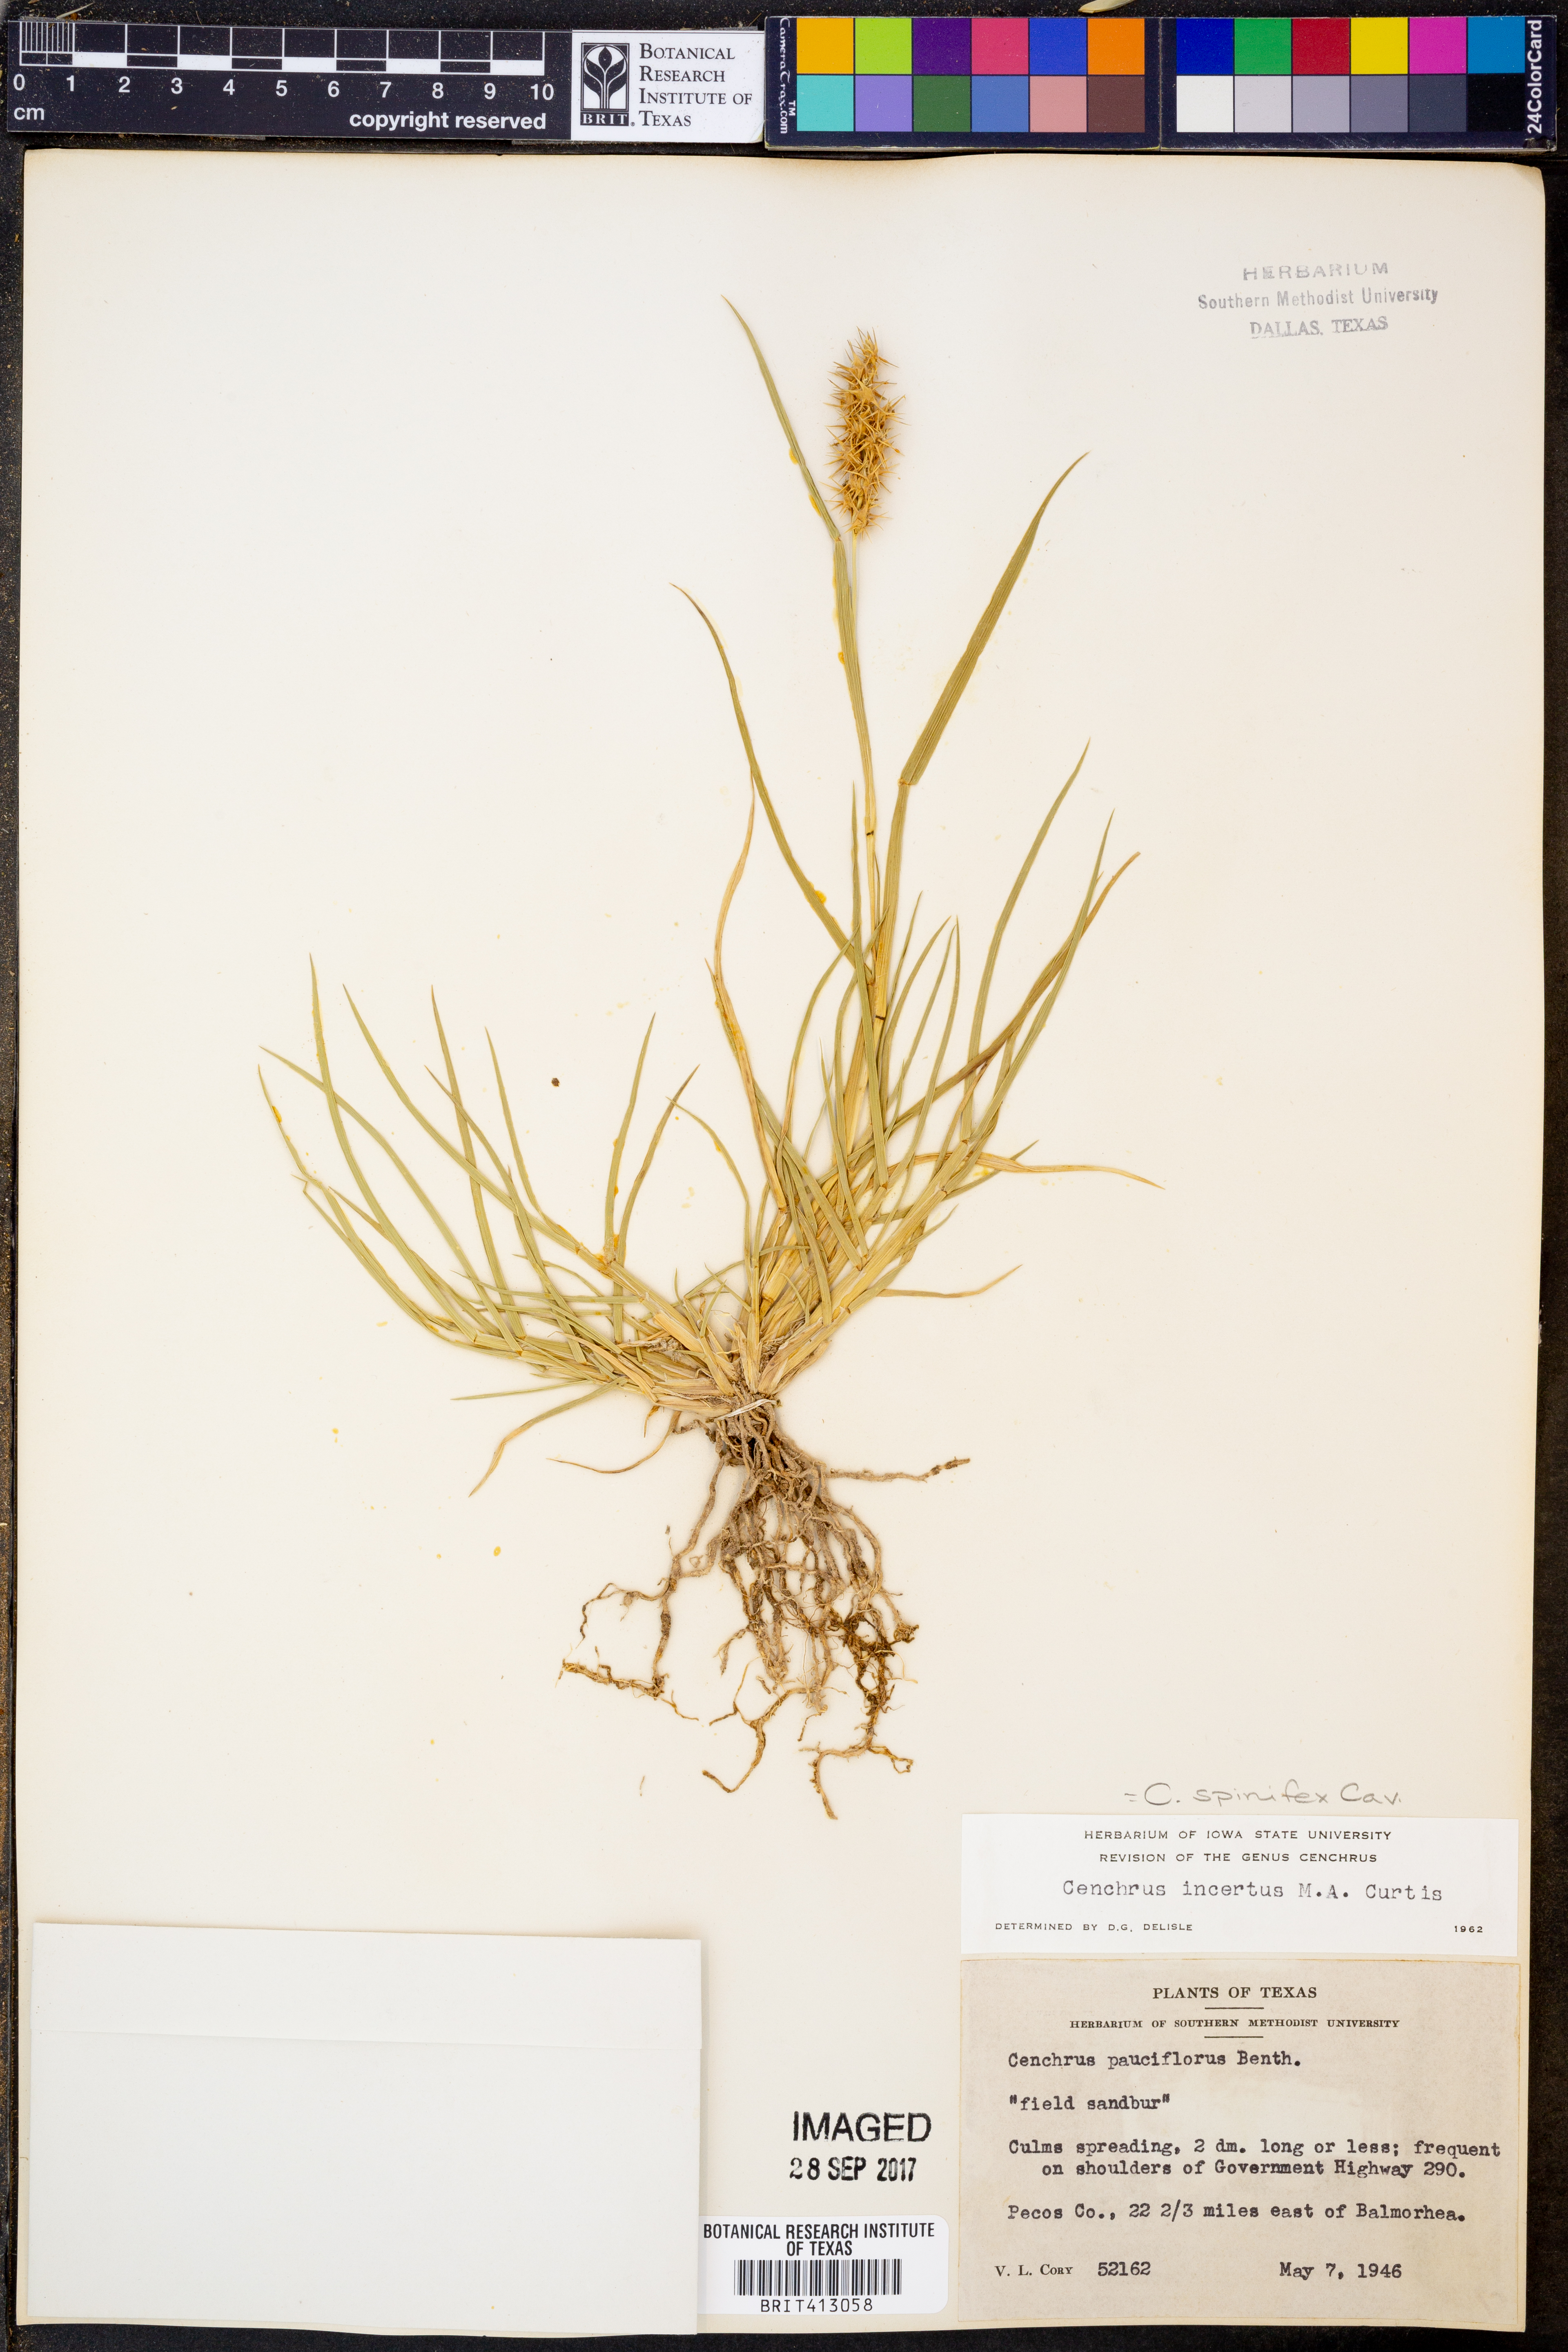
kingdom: Plantae
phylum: Tracheophyta
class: Liliopsida
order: Poales
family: Poaceae
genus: Cenchrus
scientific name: Cenchrus spinifex
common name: Coast sandbur
